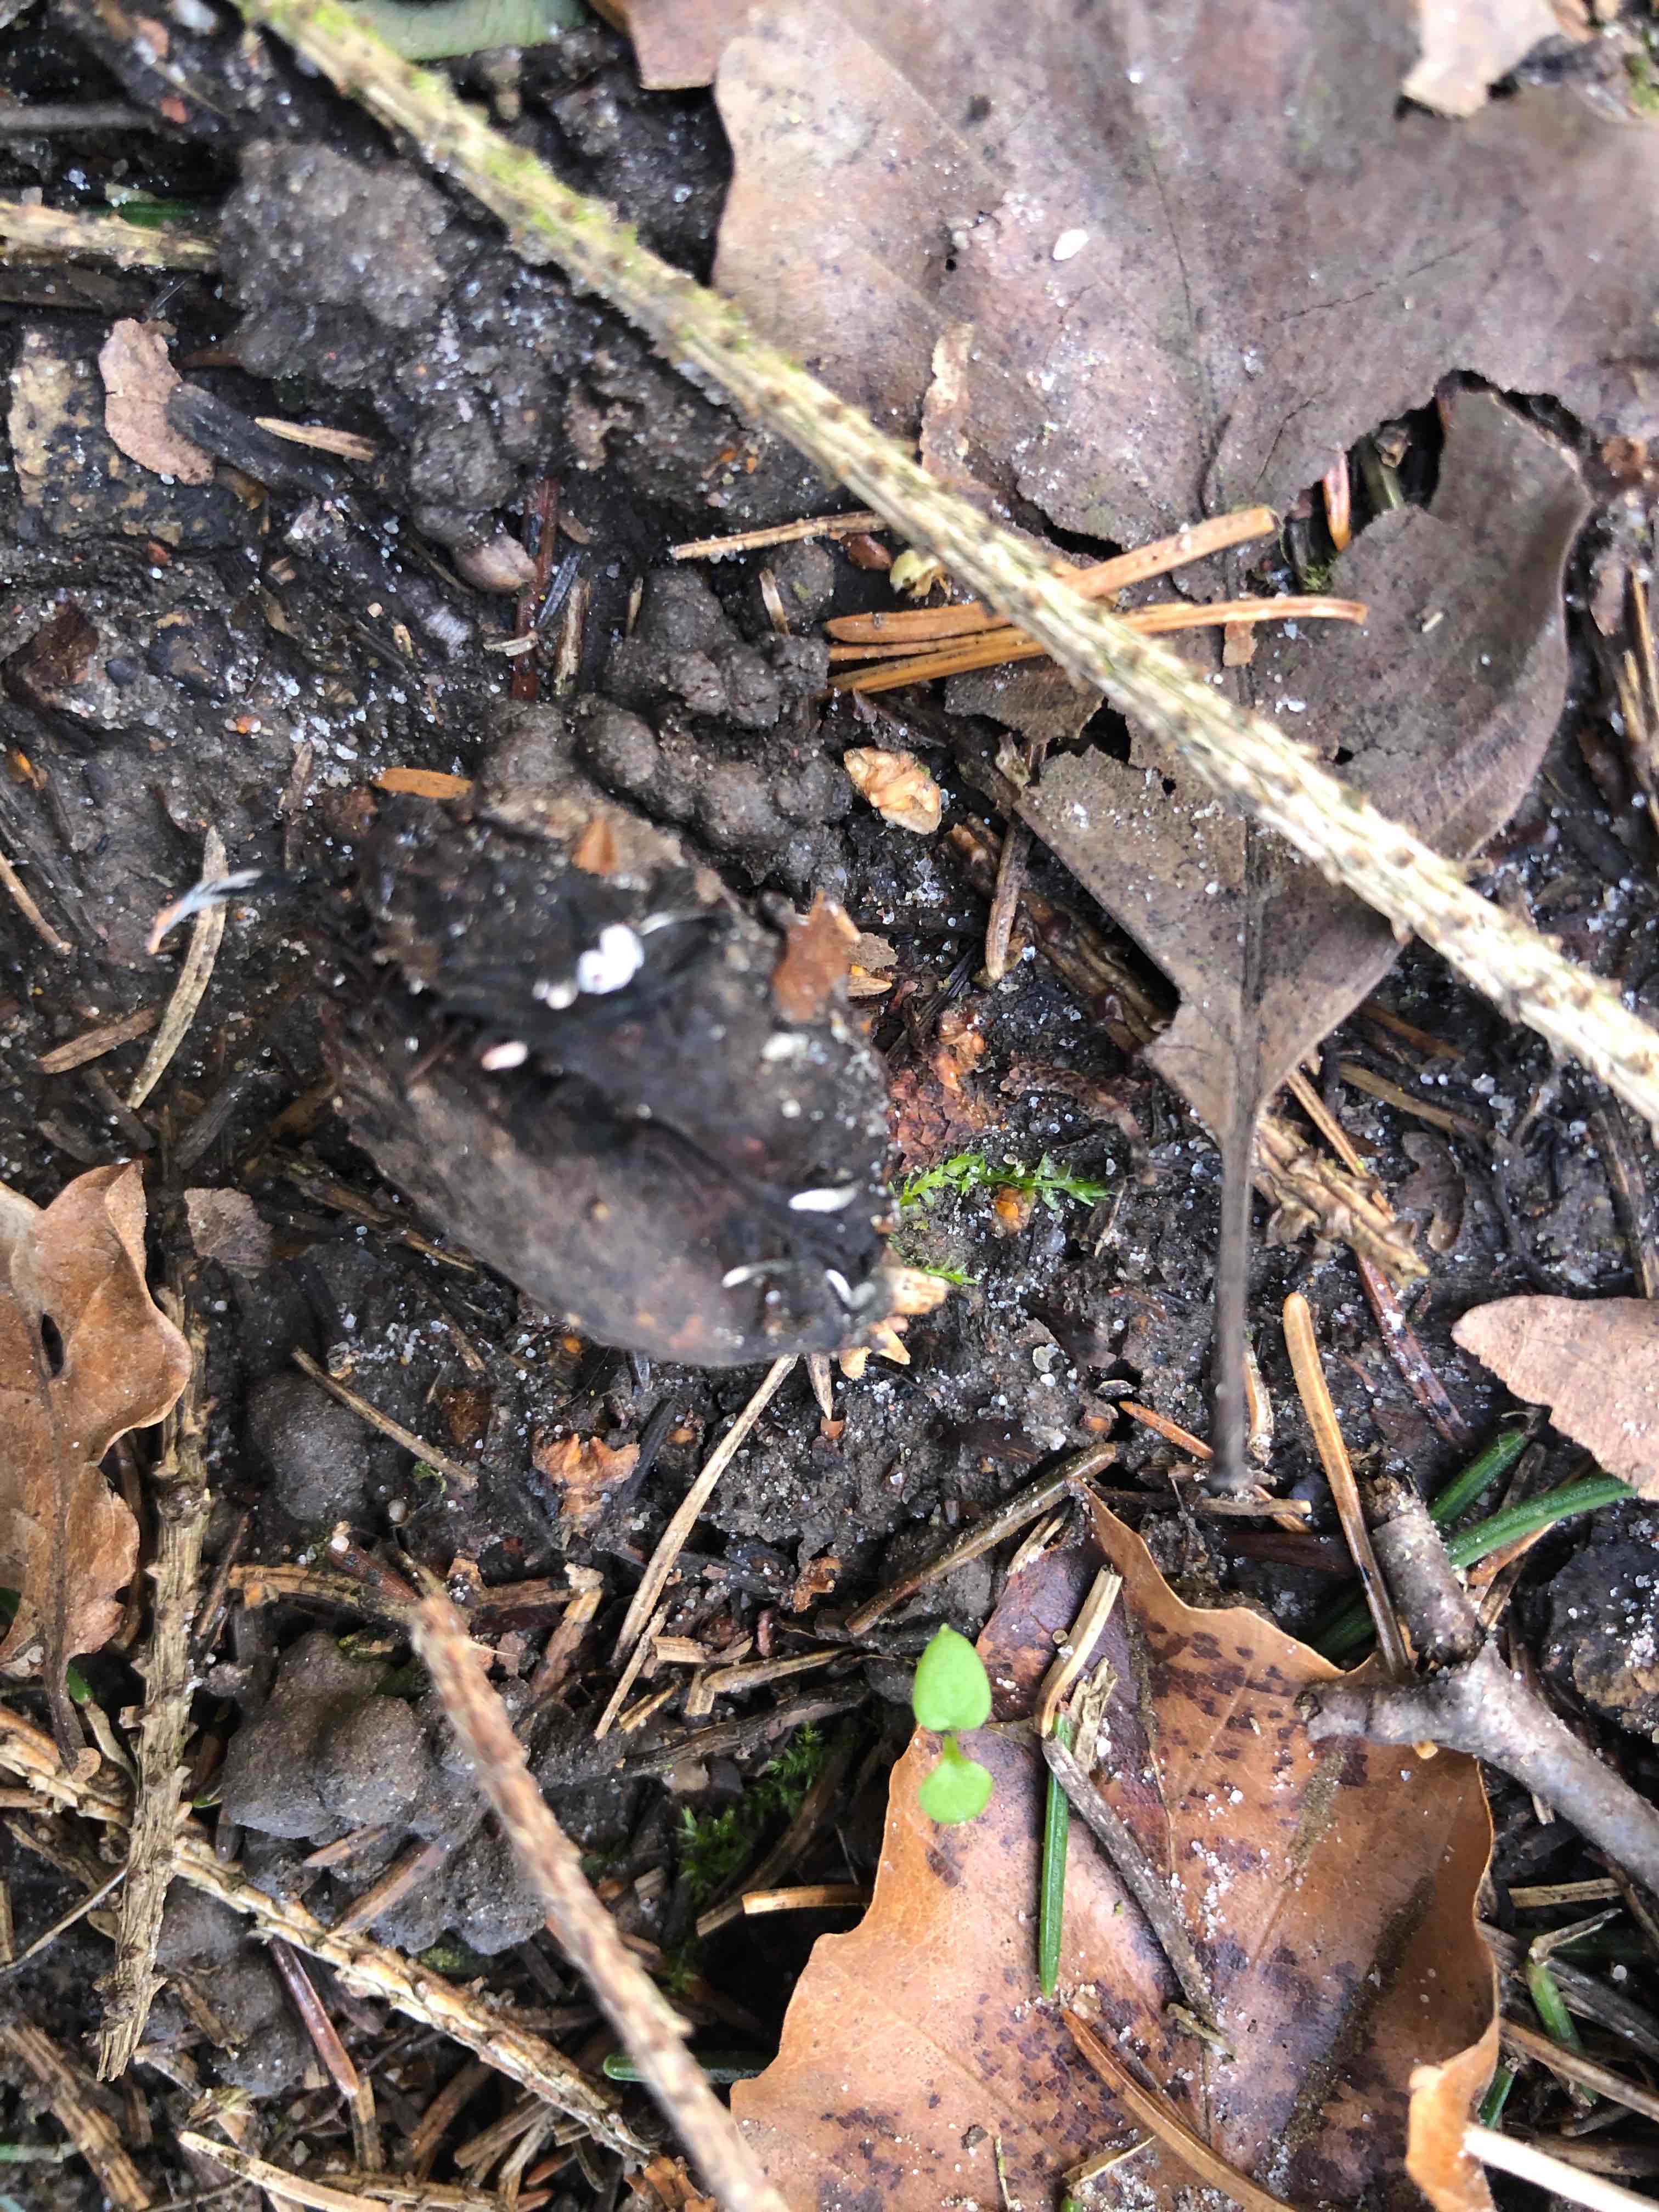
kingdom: Fungi
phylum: Ascomycota
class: Sordariomycetes
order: Xylariales
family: Xylariaceae
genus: Xylaria
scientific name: Xylaria carpophila
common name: bogskål-stødsvamp
